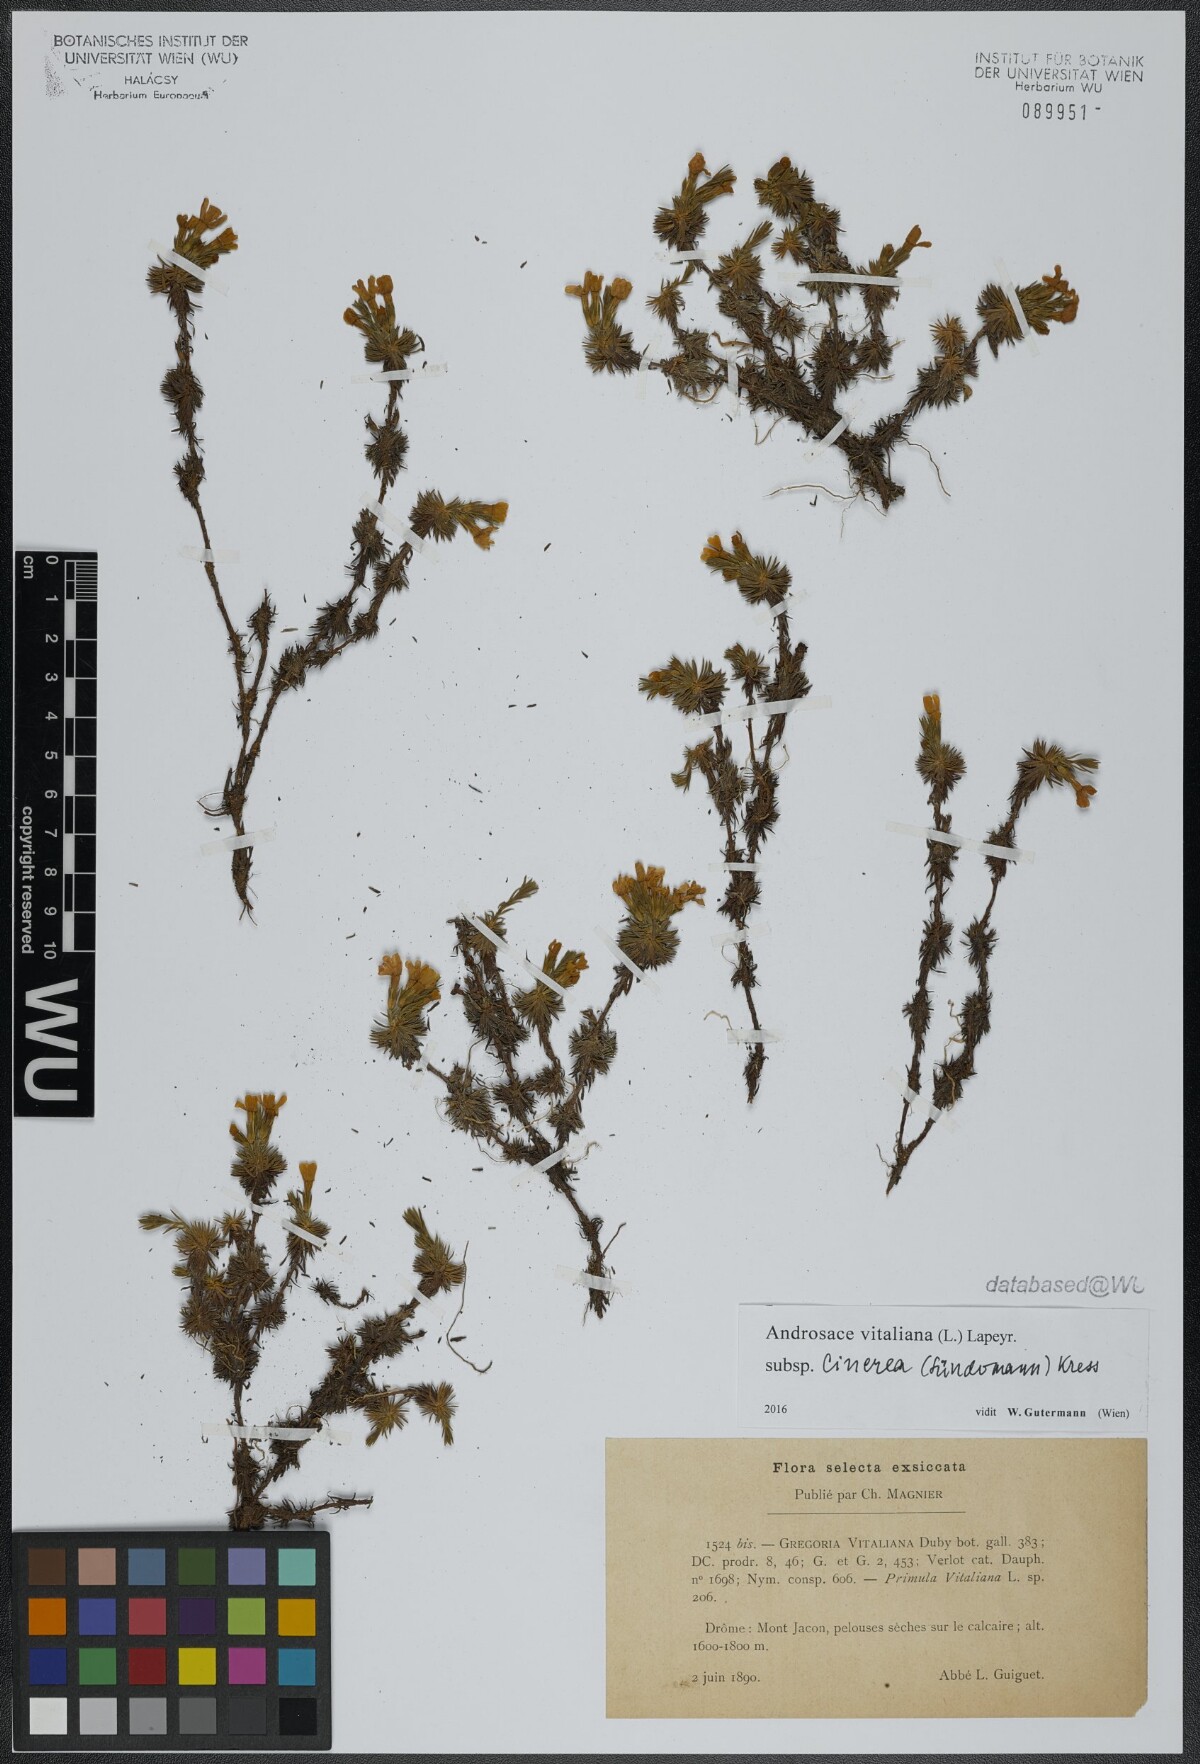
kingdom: Plantae
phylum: Tracheophyta
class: Magnoliopsida
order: Ericales
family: Primulaceae
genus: Androsace
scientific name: Androsace vitaliana
